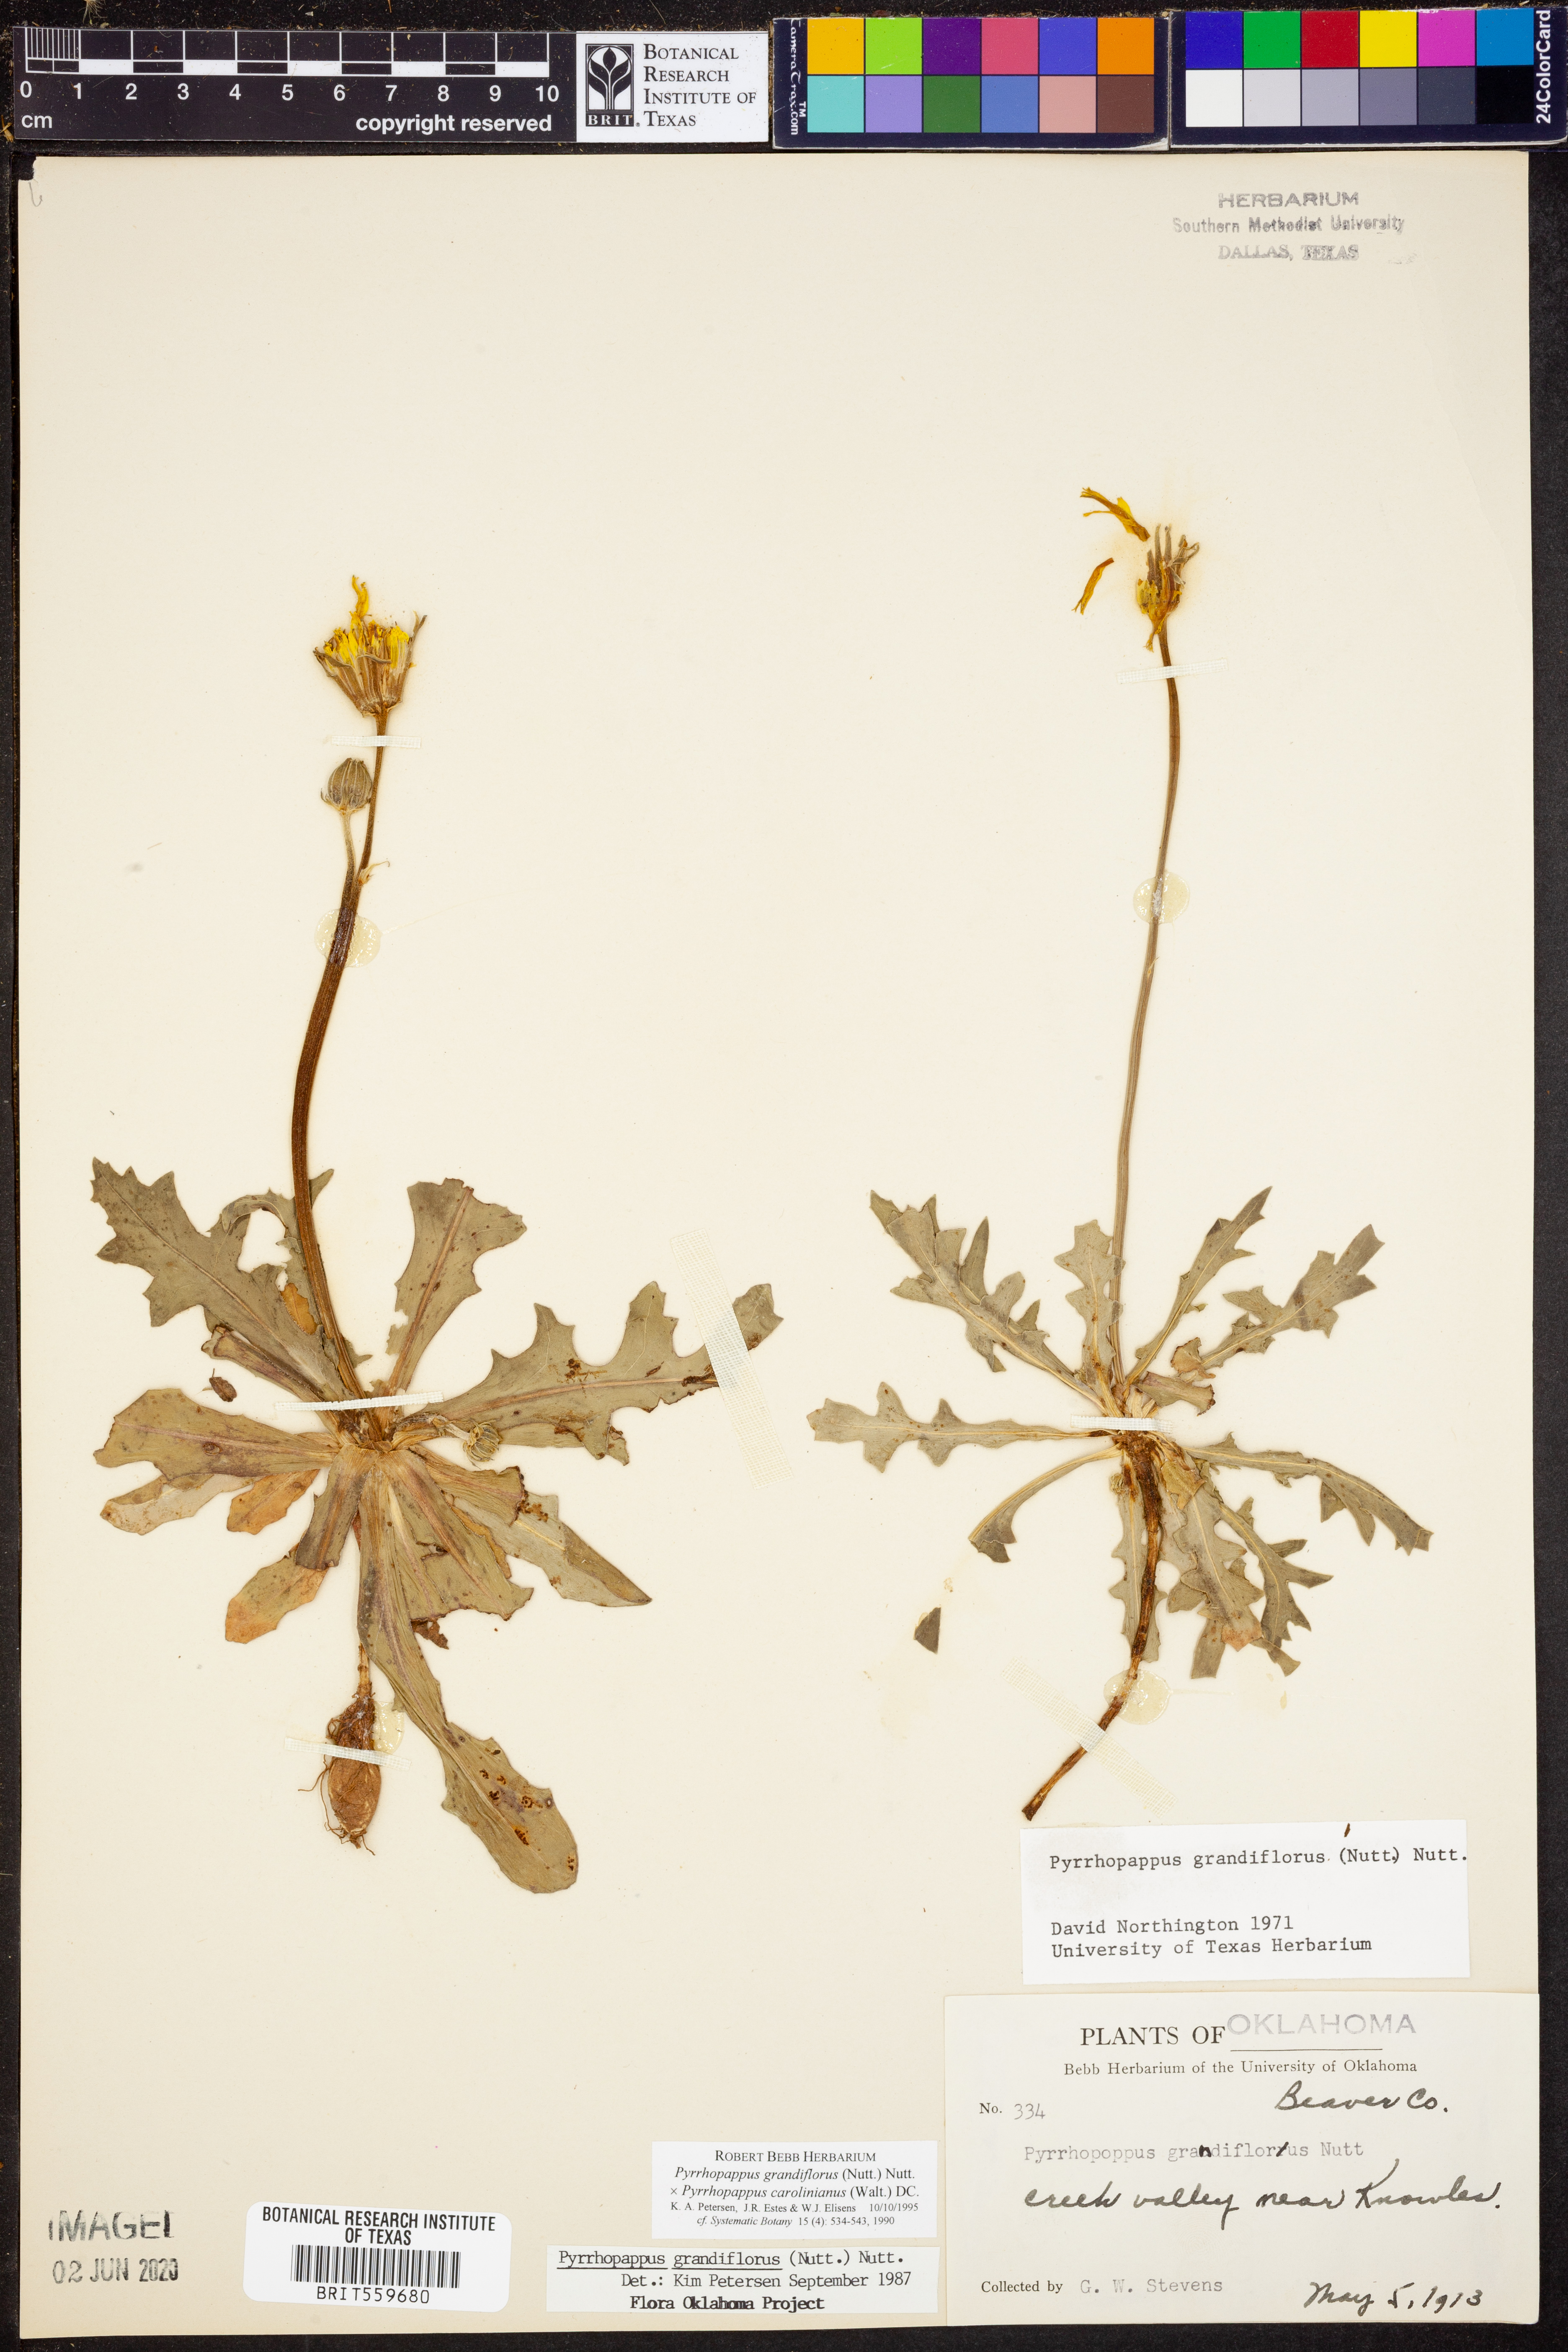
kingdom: Plantae
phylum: Tracheophyta
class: Magnoliopsida
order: Asterales
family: Asteraceae
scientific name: Asteraceae
